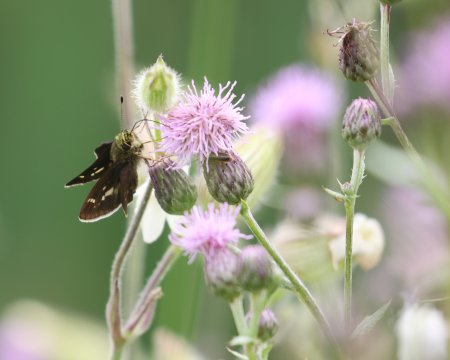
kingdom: Animalia
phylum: Arthropoda
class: Insecta
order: Lepidoptera
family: Hesperiidae
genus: Vernia
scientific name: Vernia verna
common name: Little Glassywing
